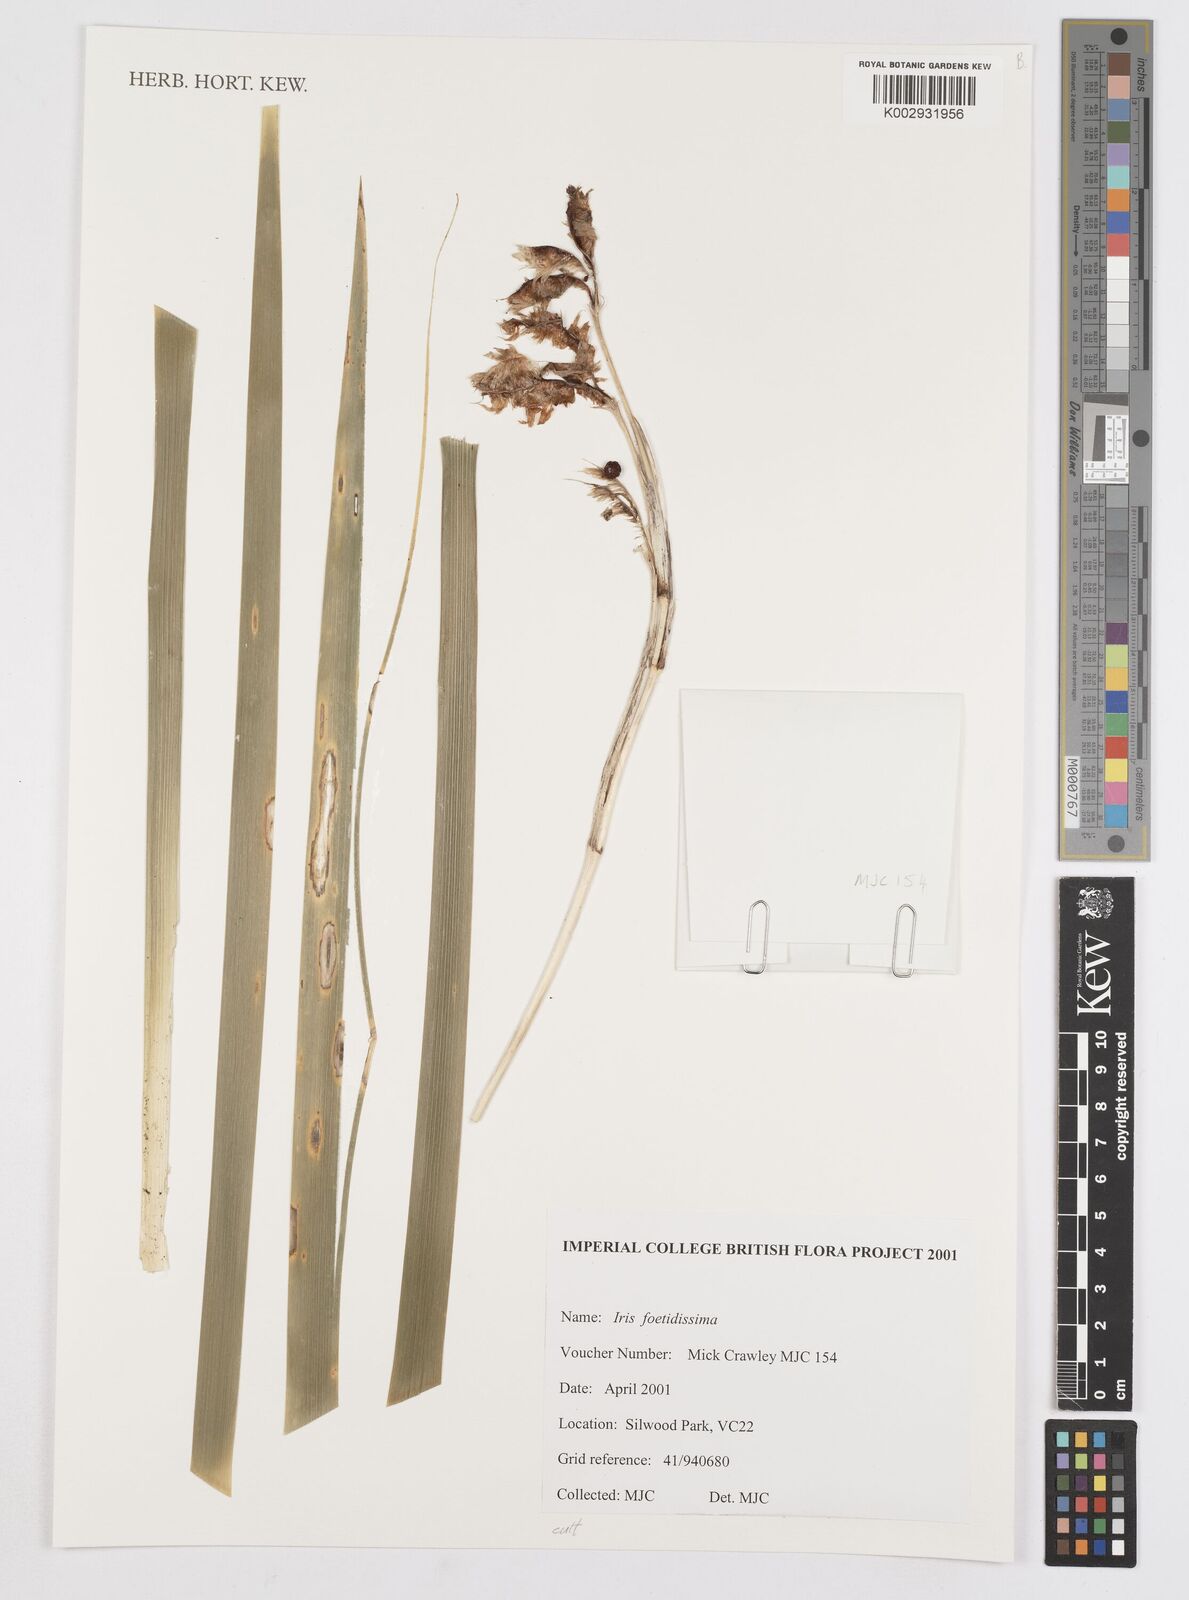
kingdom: Plantae
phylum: Tracheophyta
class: Liliopsida
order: Asparagales
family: Iridaceae
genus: Iris
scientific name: Iris foetidissima
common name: Stinking iris
